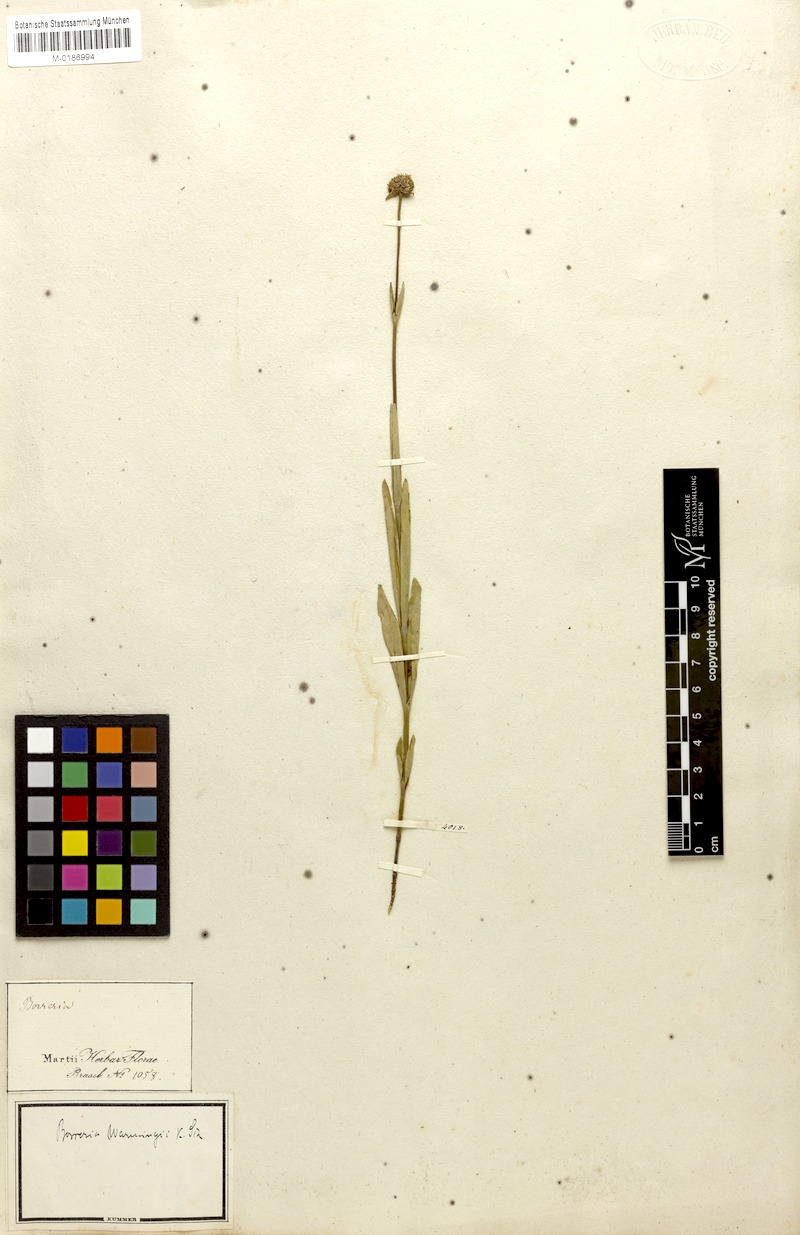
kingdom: Plantae
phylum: Tracheophyta
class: Magnoliopsida
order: Gentianales
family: Rubiaceae
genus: Spermacoce
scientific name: Spermacoce warmingii
